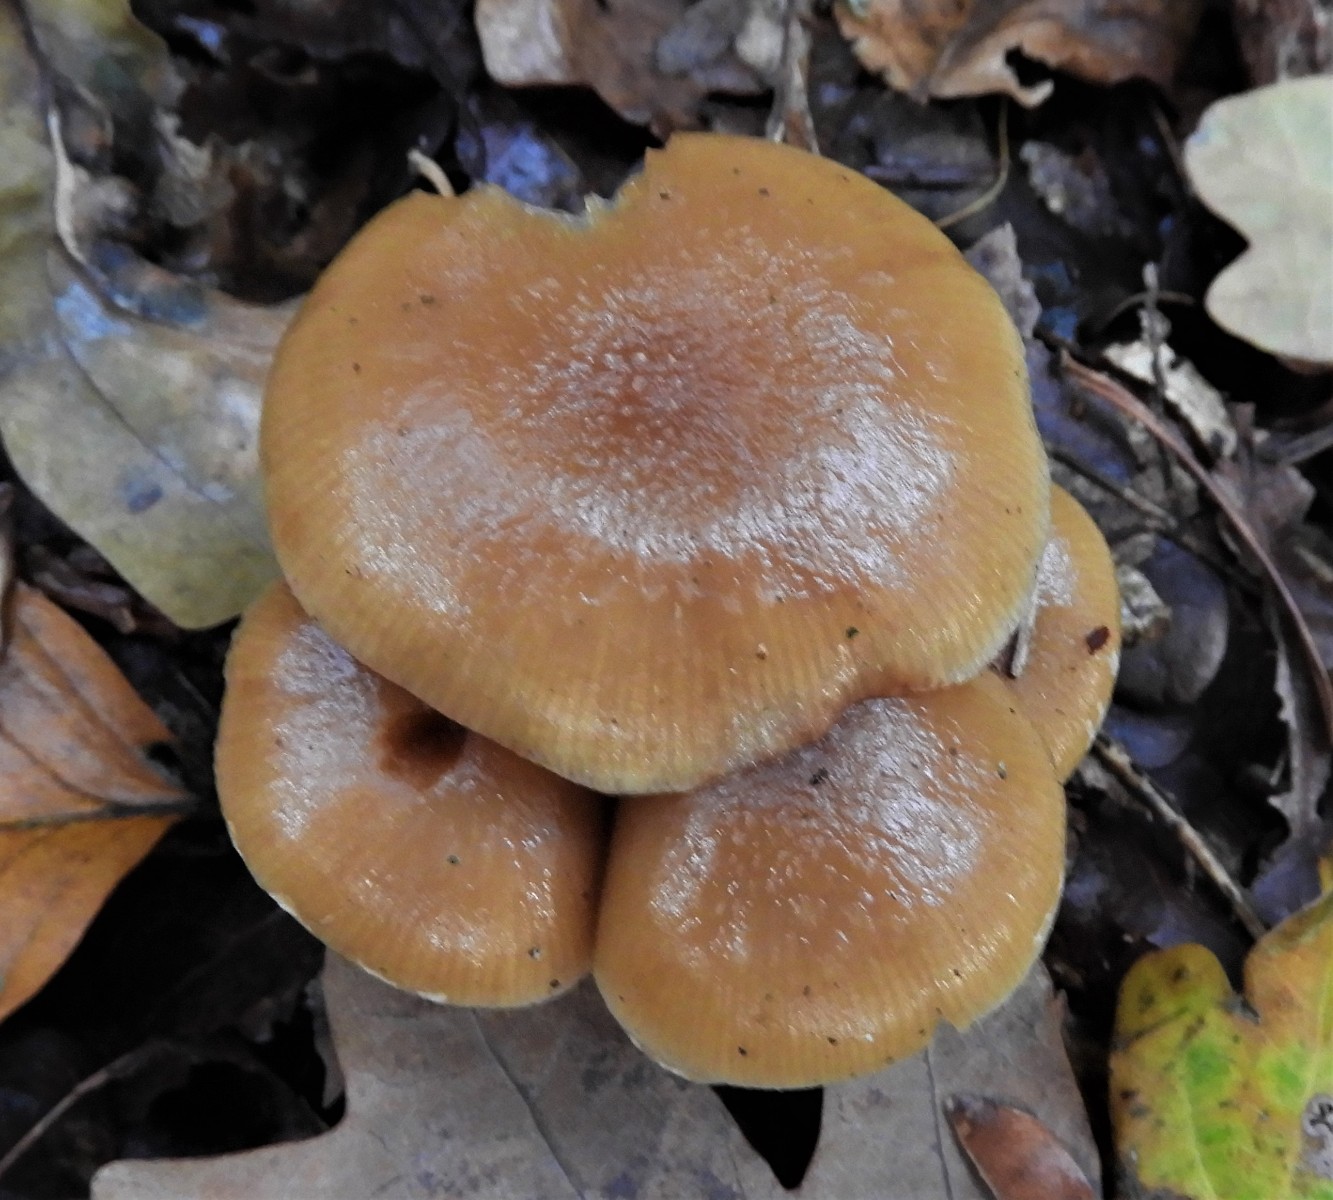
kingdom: Fungi
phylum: Basidiomycota
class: Agaricomycetes
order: Agaricales
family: Hymenogastraceae
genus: Galerina
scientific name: Galerina sideroides
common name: træflis-hjelmhat
